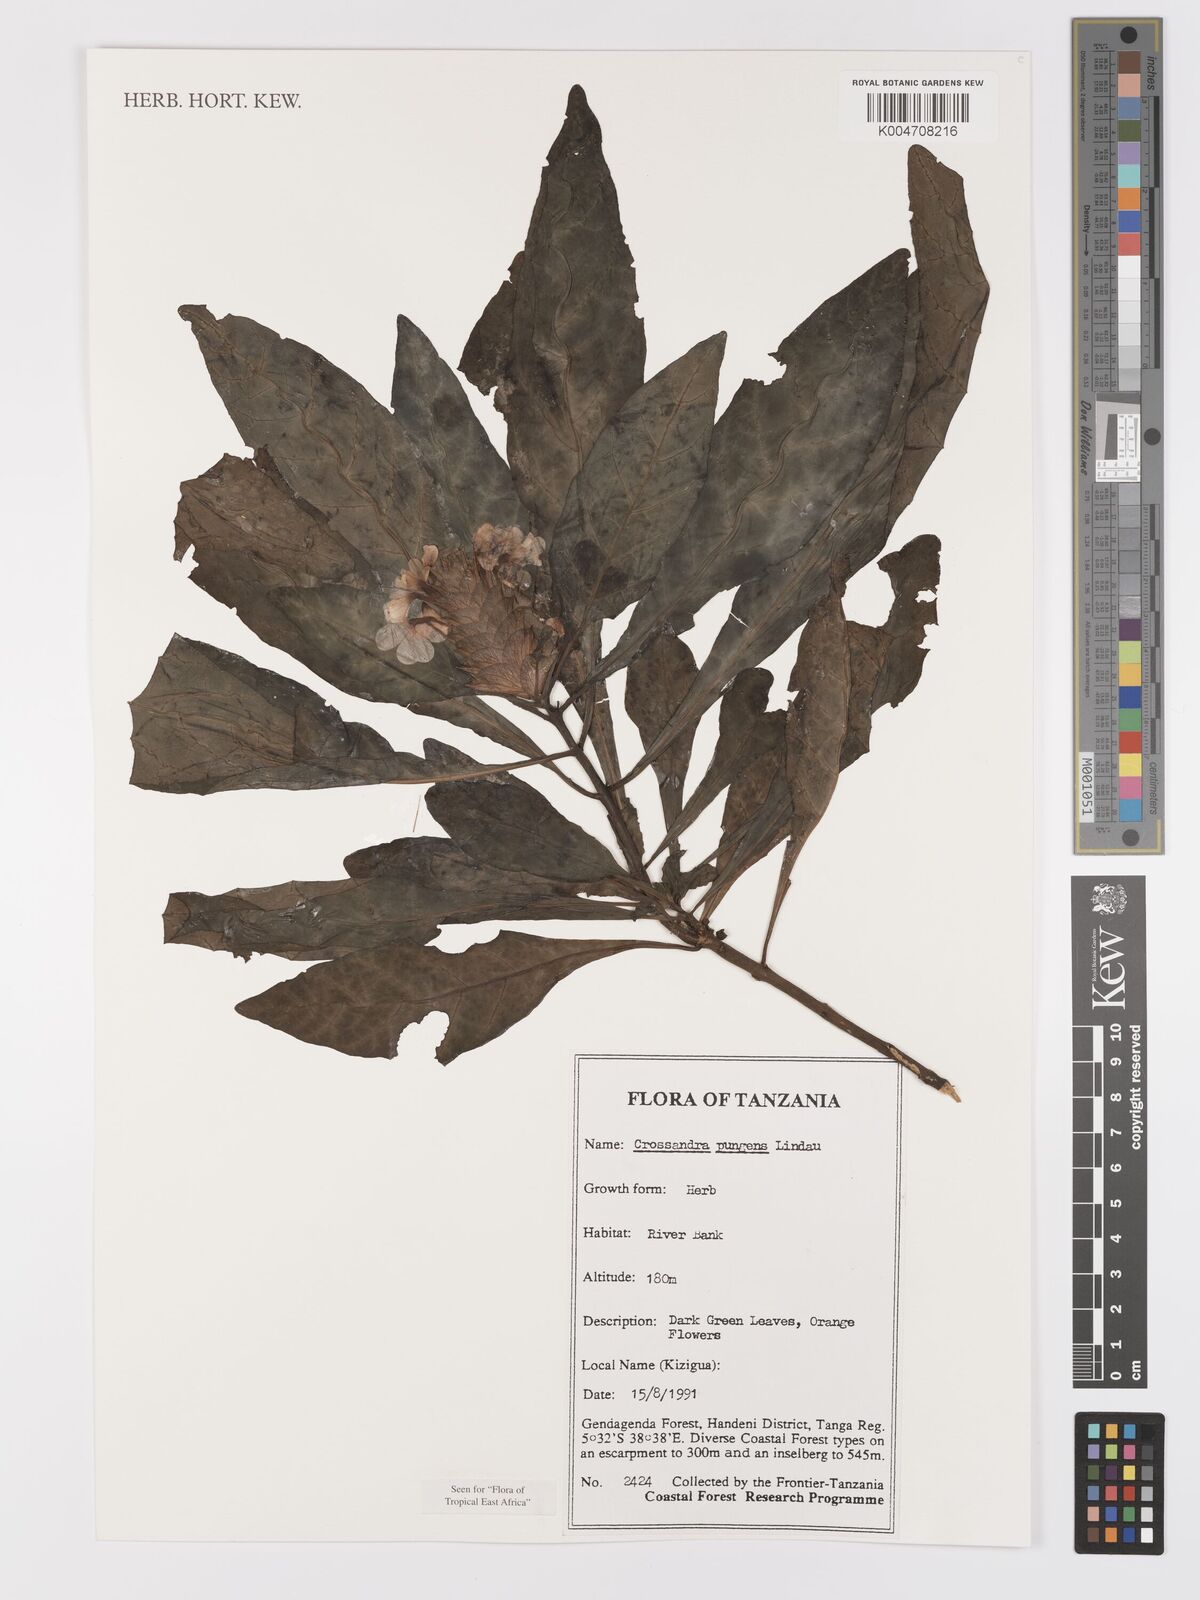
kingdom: Plantae
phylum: Tracheophyta
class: Magnoliopsida
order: Lamiales
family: Acanthaceae
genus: Crossandra
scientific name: Crossandra pungens
